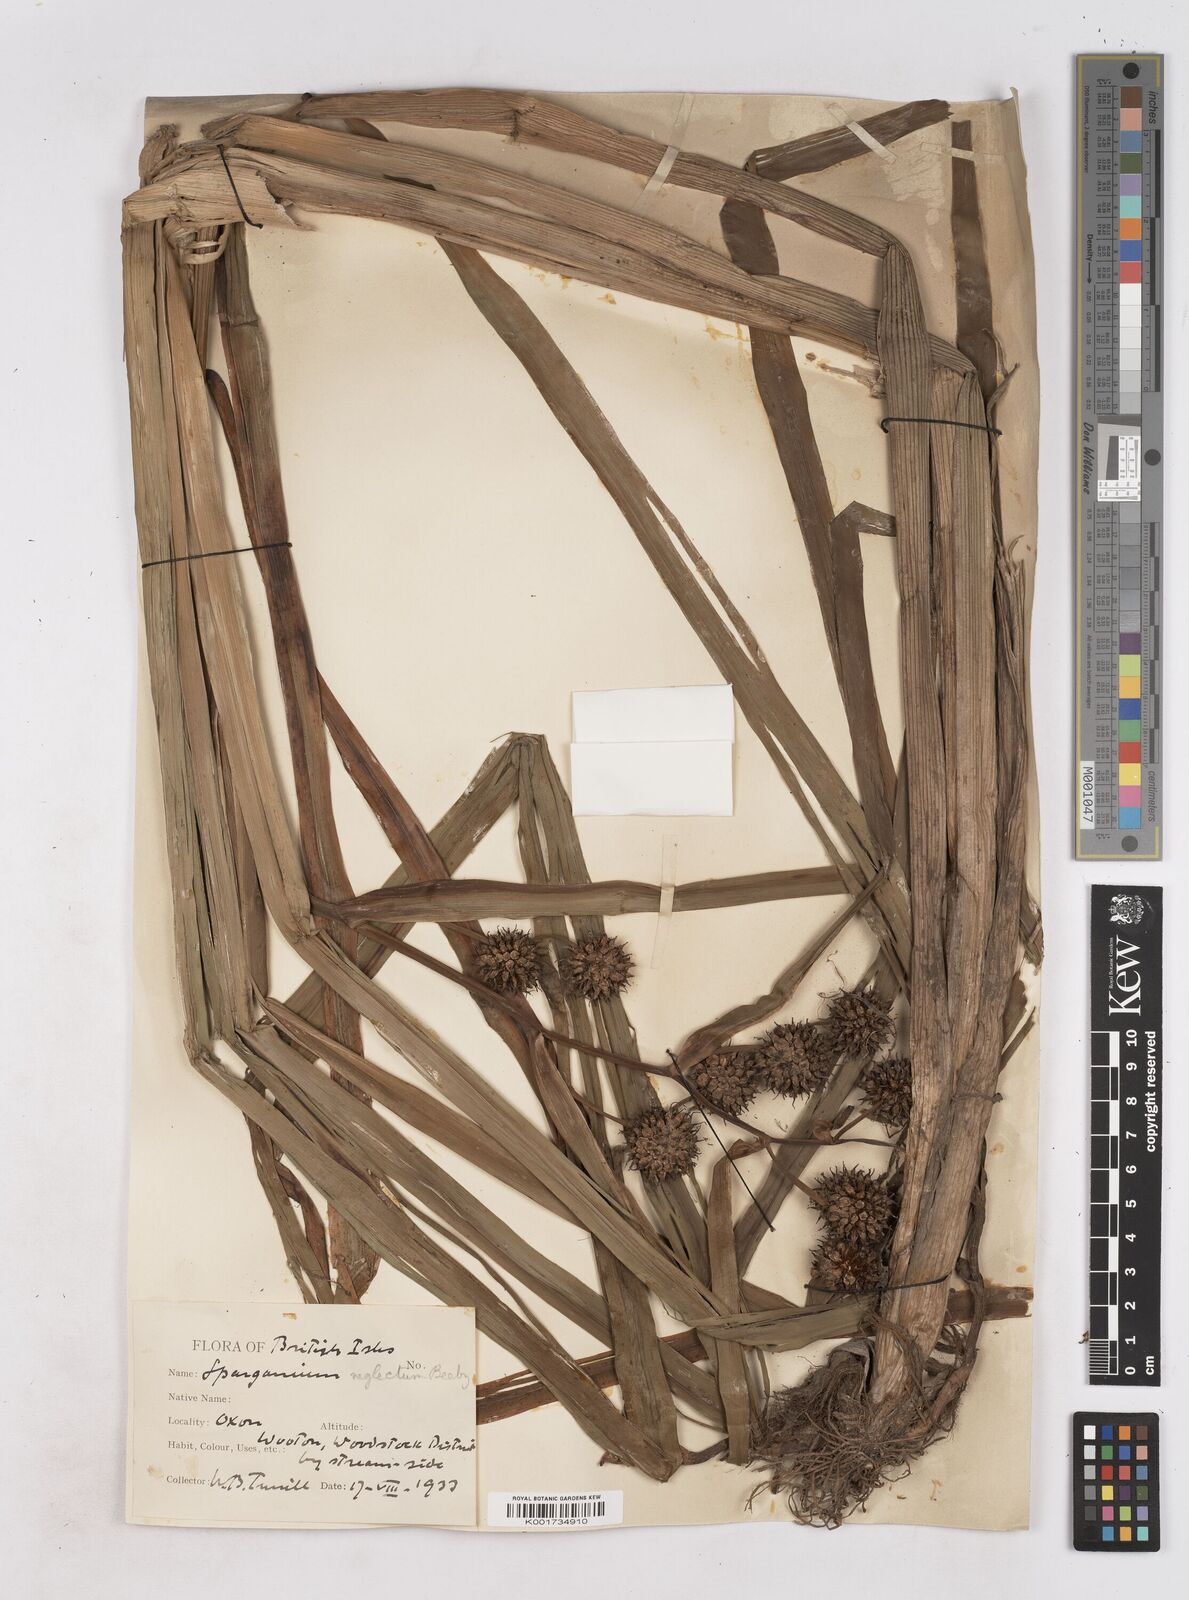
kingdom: Plantae
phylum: Tracheophyta
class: Liliopsida
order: Poales
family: Typhaceae
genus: Sparganium
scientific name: Sparganium erectum
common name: Branched bur-reed
